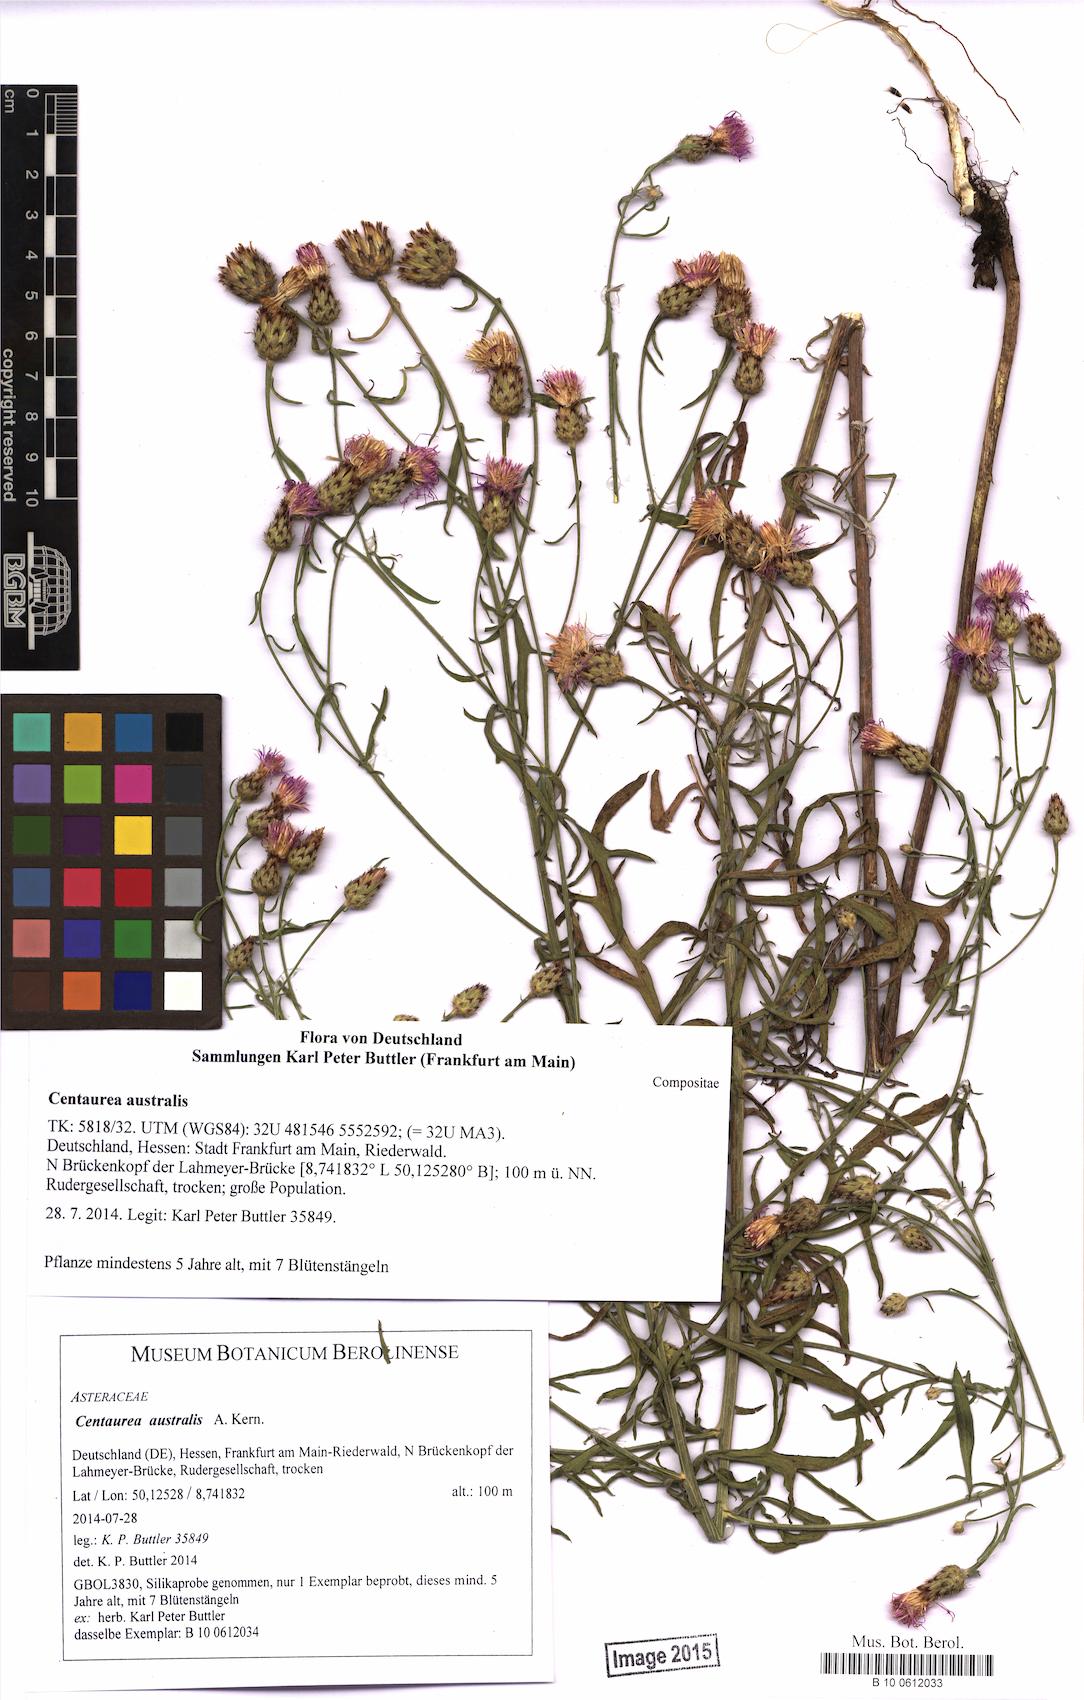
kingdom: Plantae
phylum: Tracheophyta
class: Magnoliopsida
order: Asterales
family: Asteraceae
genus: Centaurea
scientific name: Centaurea australis
